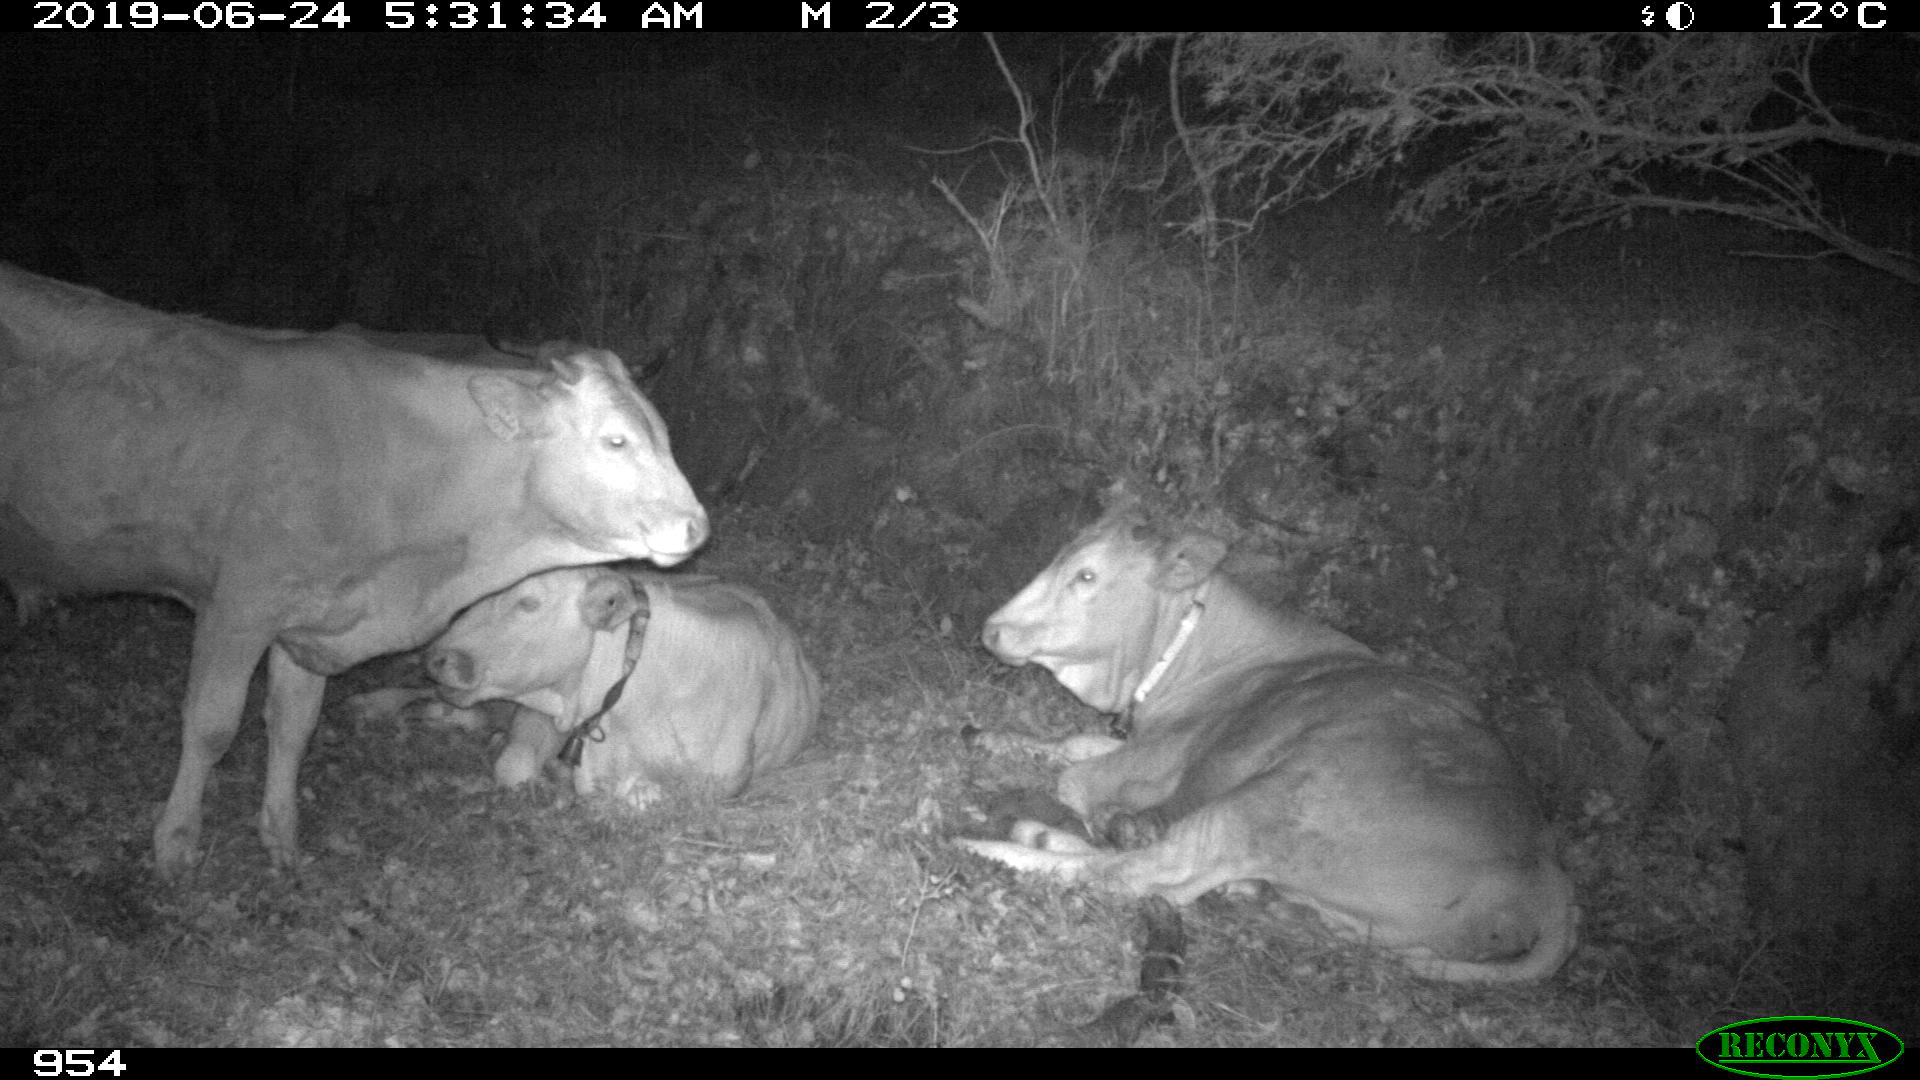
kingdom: Animalia
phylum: Chordata
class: Mammalia
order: Artiodactyla
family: Bovidae
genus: Bos
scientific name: Bos taurus
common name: Domesticated cattle
